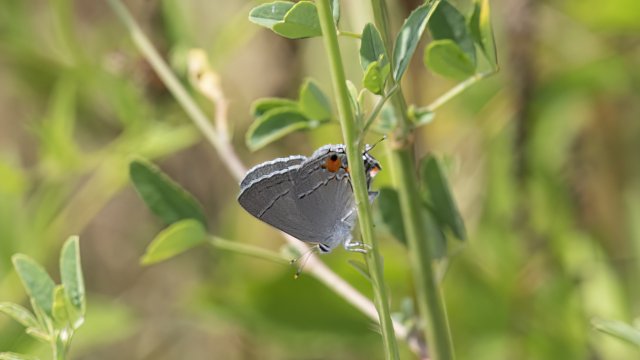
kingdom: Animalia
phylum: Arthropoda
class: Insecta
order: Lepidoptera
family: Lycaenidae
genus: Strymon
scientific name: Strymon melinus
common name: Gray Hairstreak
